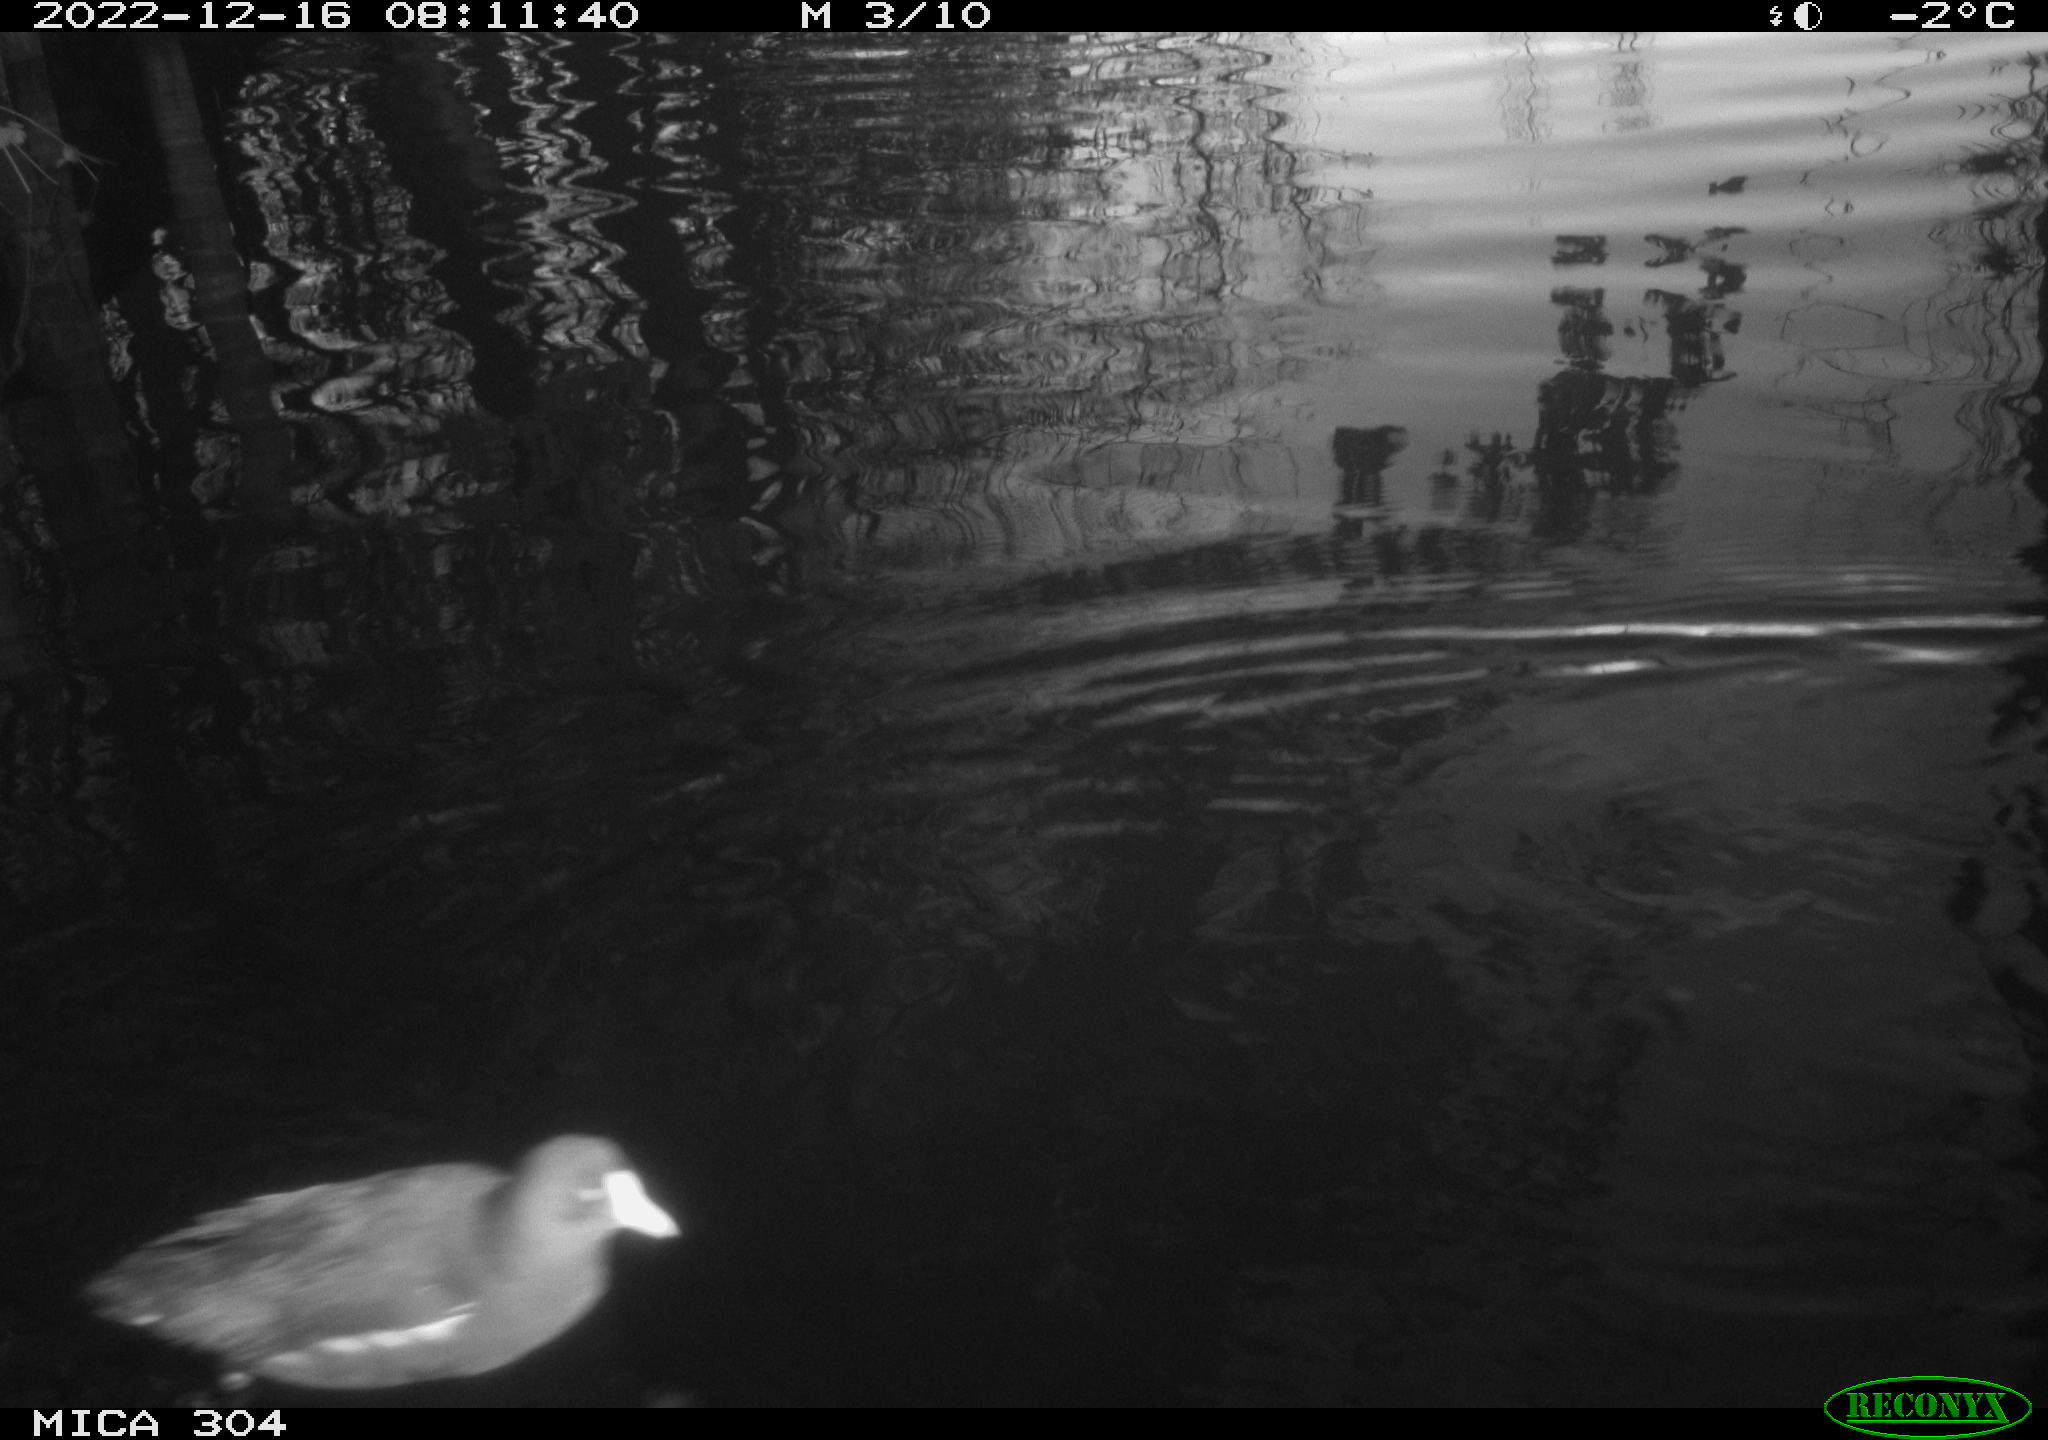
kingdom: Animalia
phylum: Chordata
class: Aves
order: Gruiformes
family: Rallidae
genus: Gallinula
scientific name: Gallinula chloropus
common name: Common moorhen
